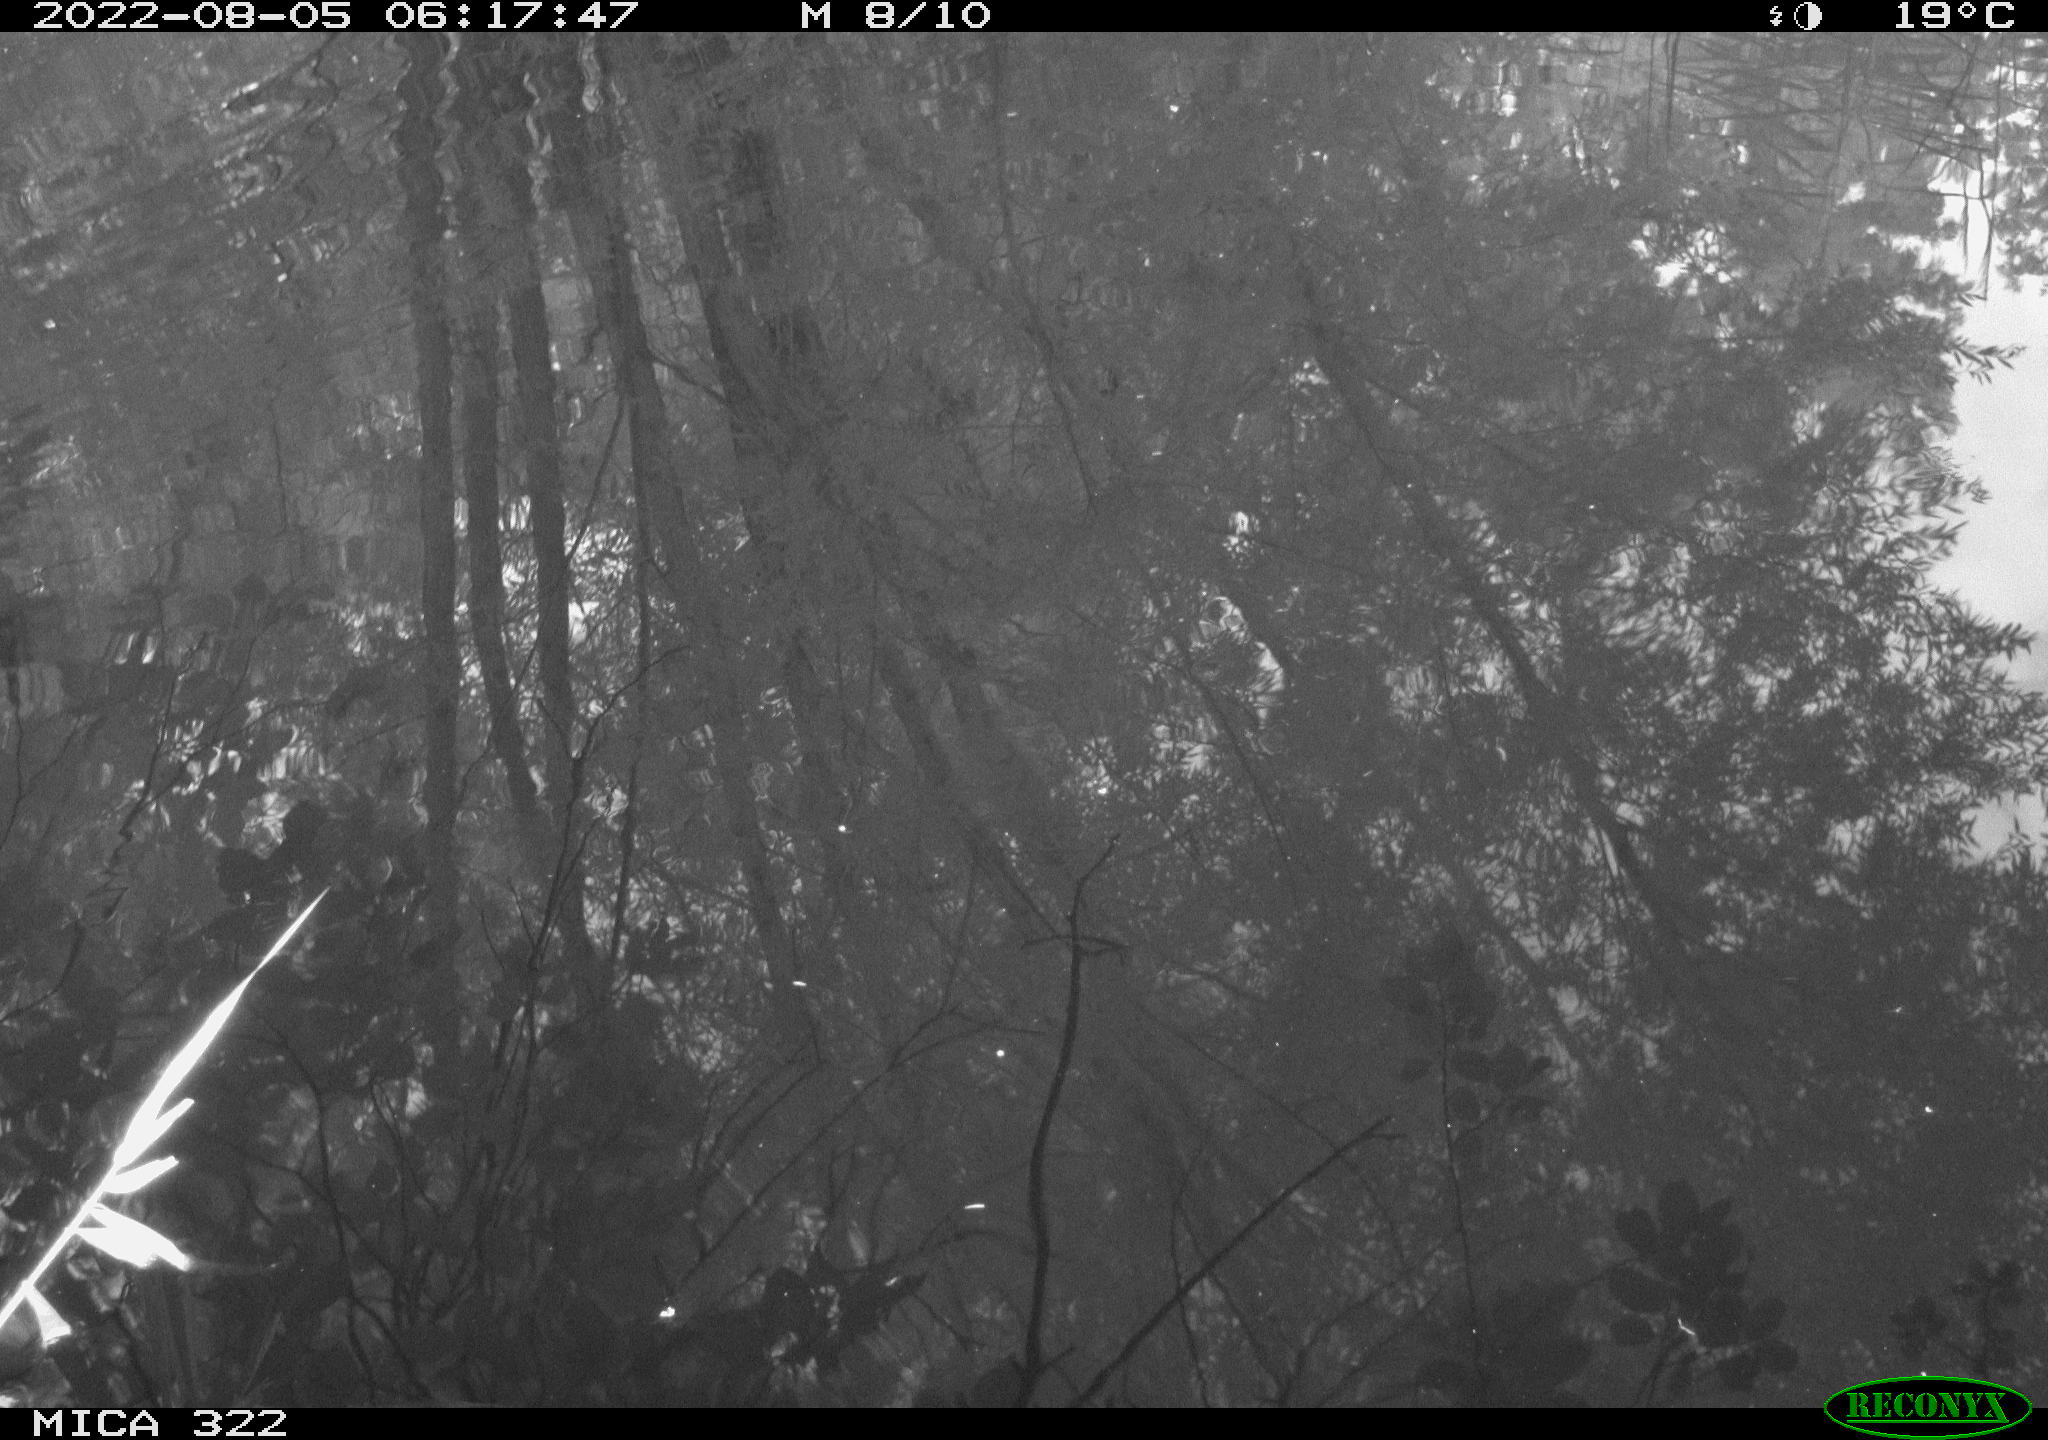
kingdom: Animalia
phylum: Chordata
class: Aves
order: Gruiformes
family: Rallidae
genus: Gallinula
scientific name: Gallinula chloropus
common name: Common moorhen
